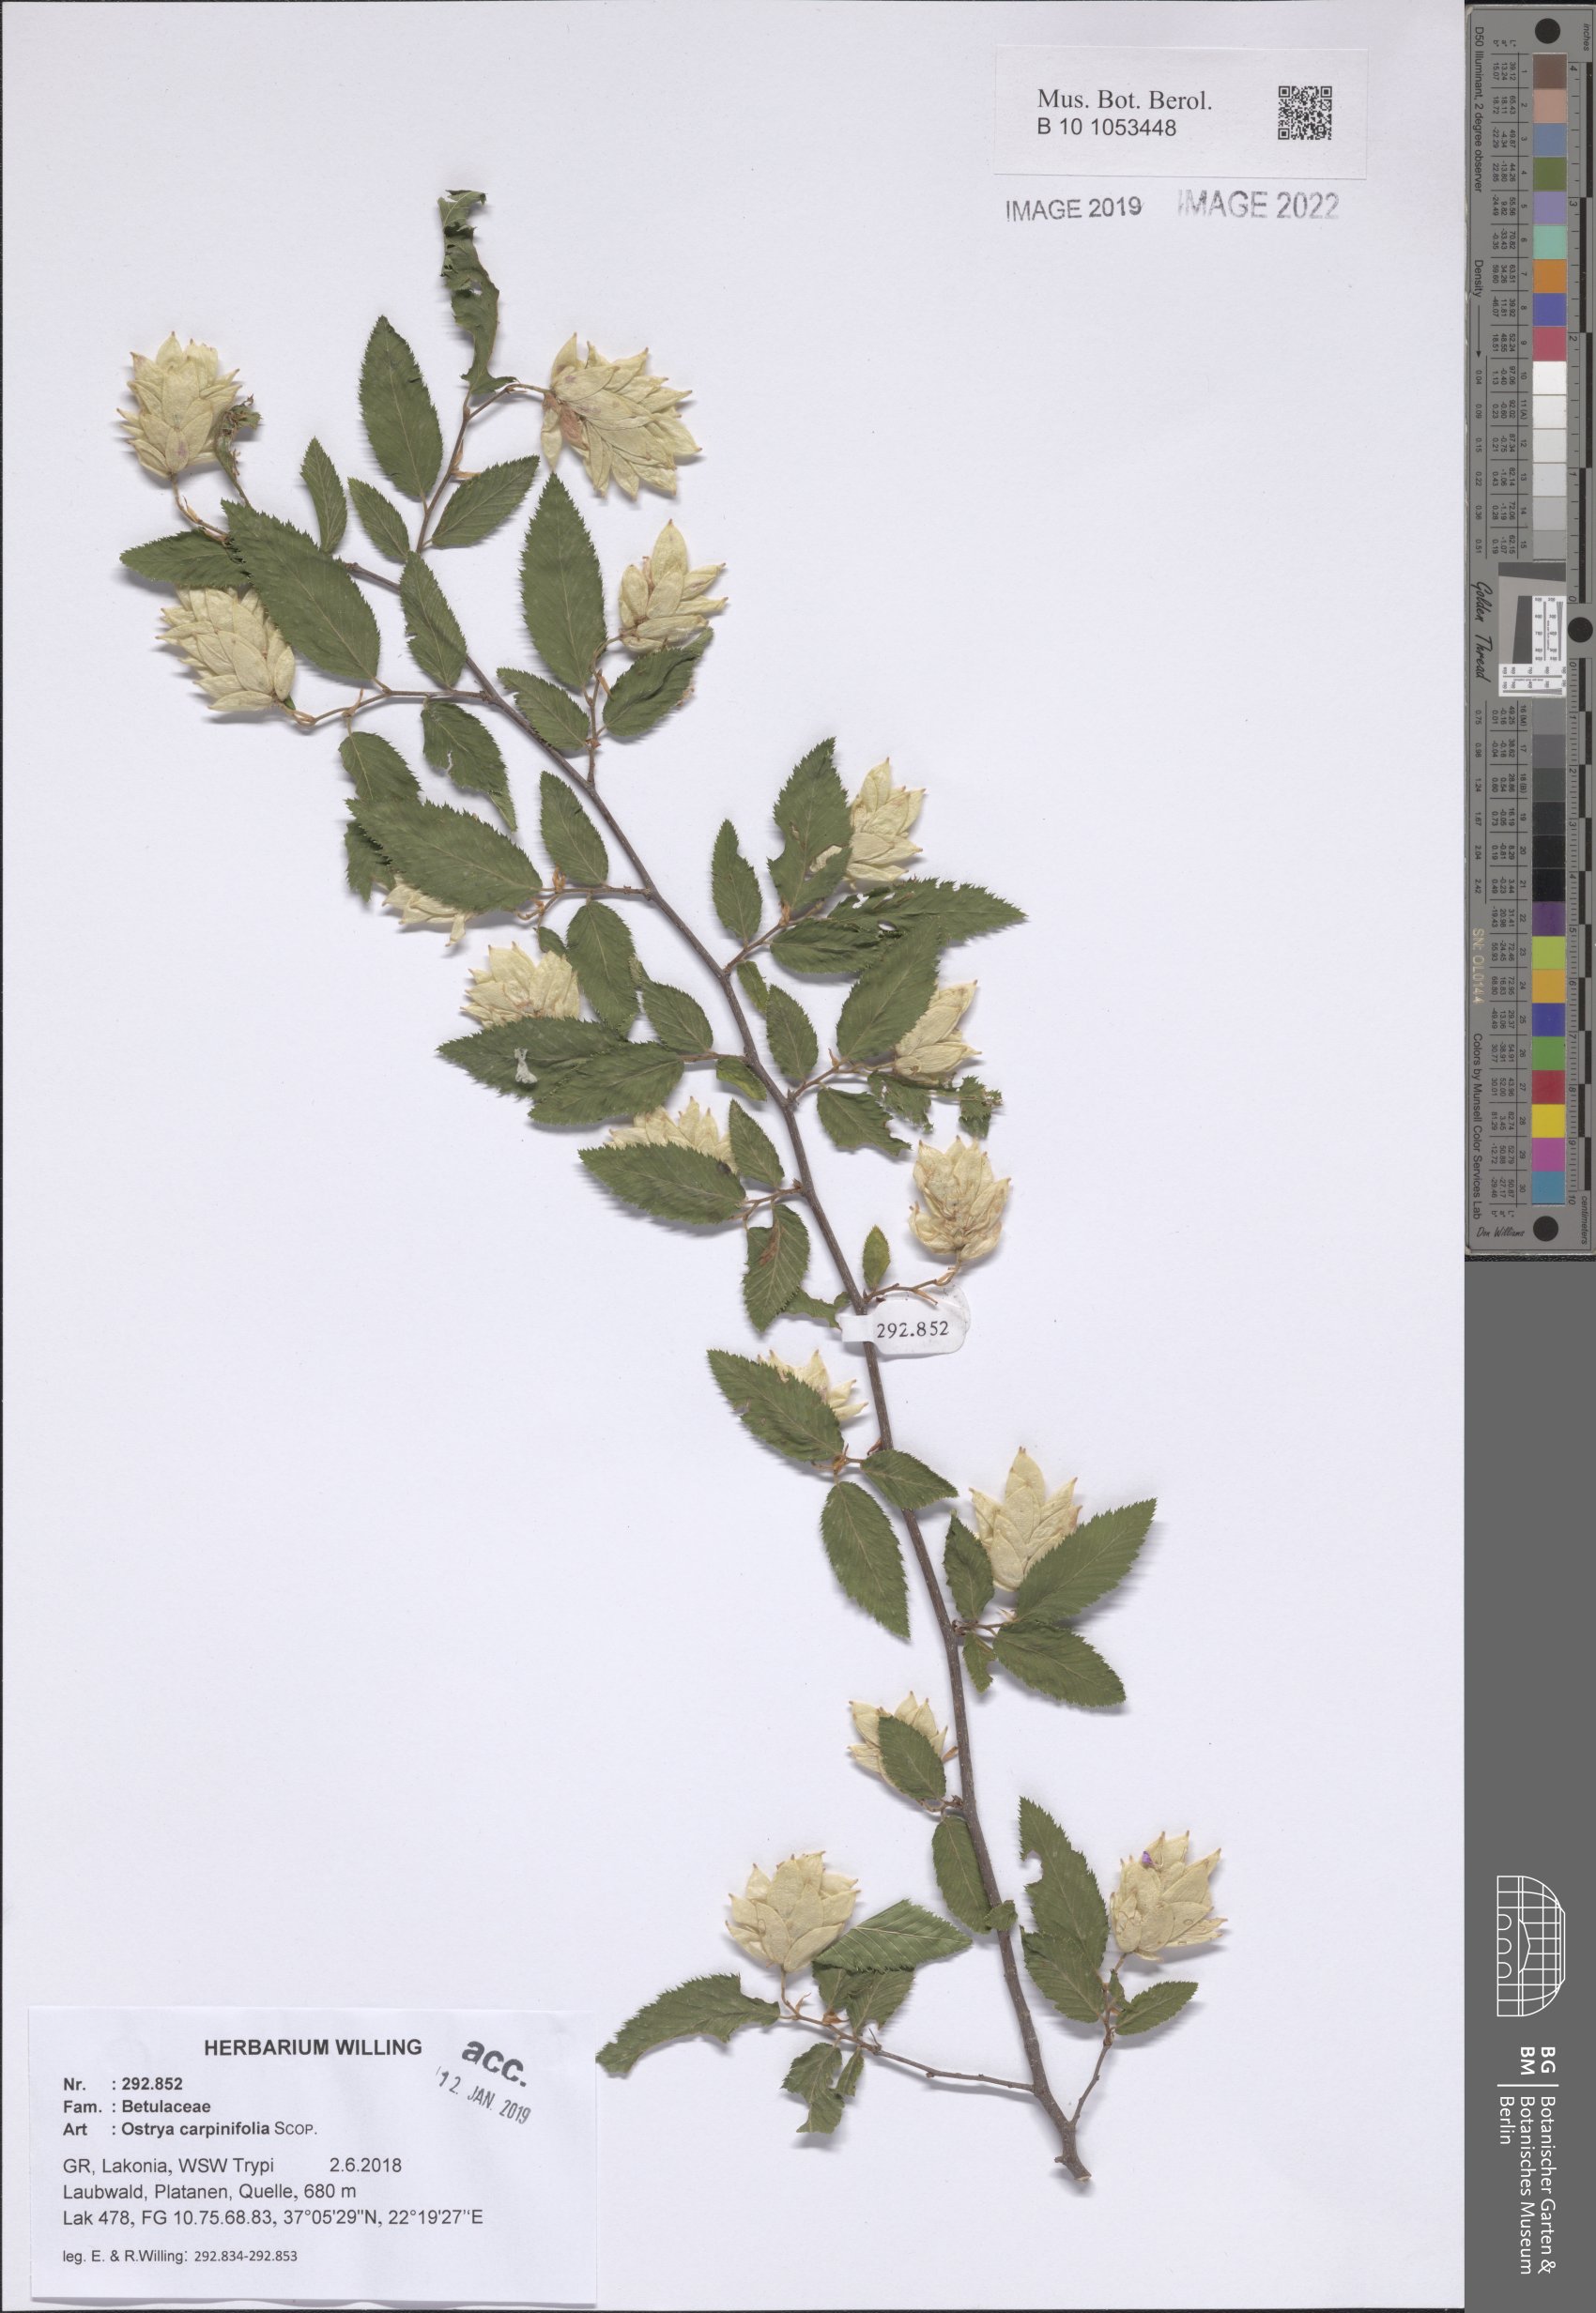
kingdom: Plantae
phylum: Tracheophyta
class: Magnoliopsida
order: Fagales
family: Betulaceae
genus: Ostrya
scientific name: Ostrya carpinifolia
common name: European hop-hornbeam
